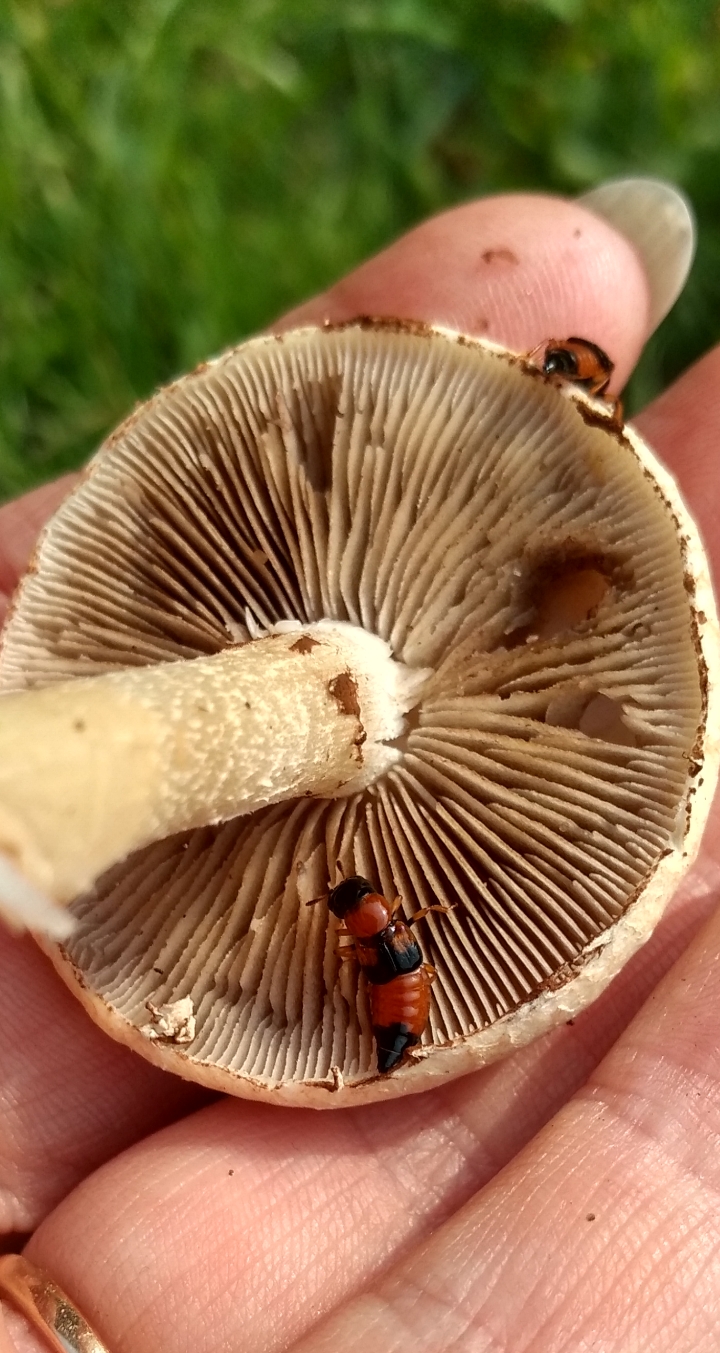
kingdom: Fungi
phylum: Basidiomycota
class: Agaricomycetes
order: Agaricales
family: Strophariaceae
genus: Agrocybe
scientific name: Agrocybe dura
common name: fastkødet agerhat
